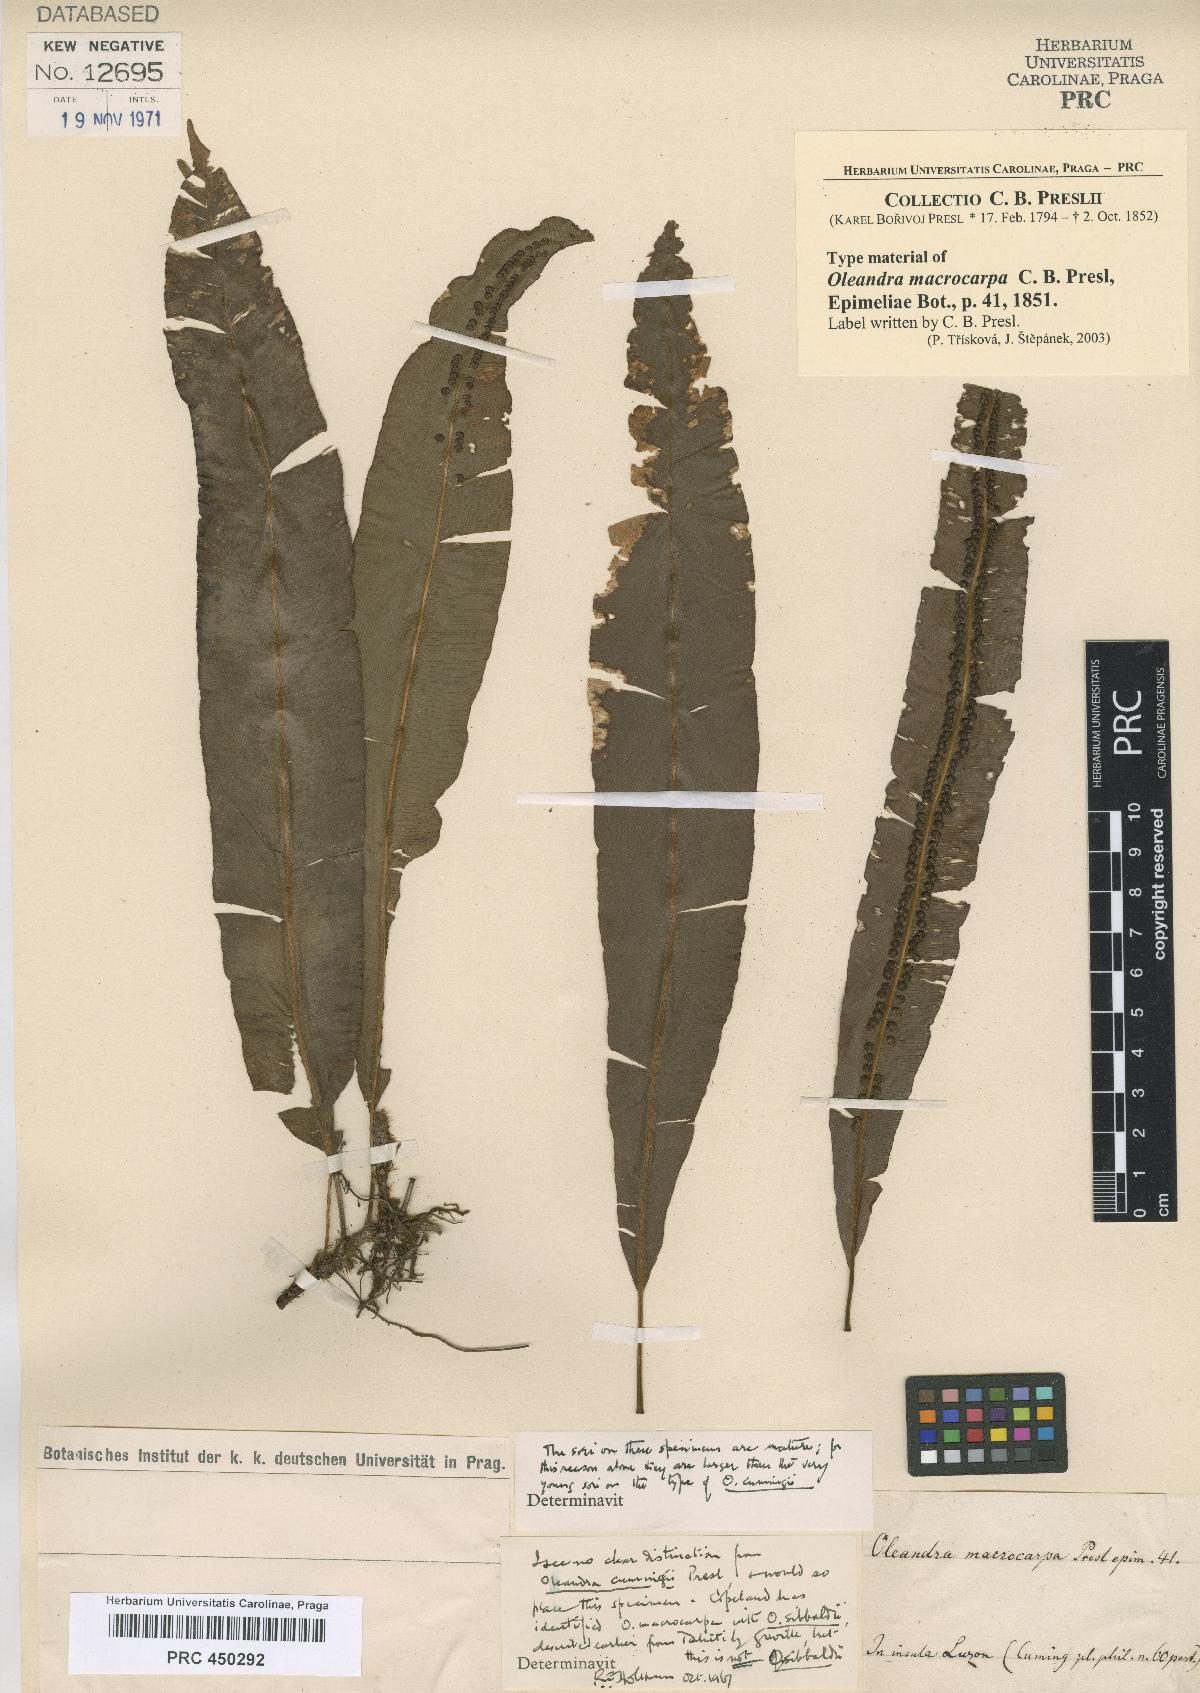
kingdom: Plantae
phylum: Tracheophyta
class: Polypodiopsida
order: Polypodiales
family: Oleandraceae
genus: Oleandra
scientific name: Oleandra cumingii
